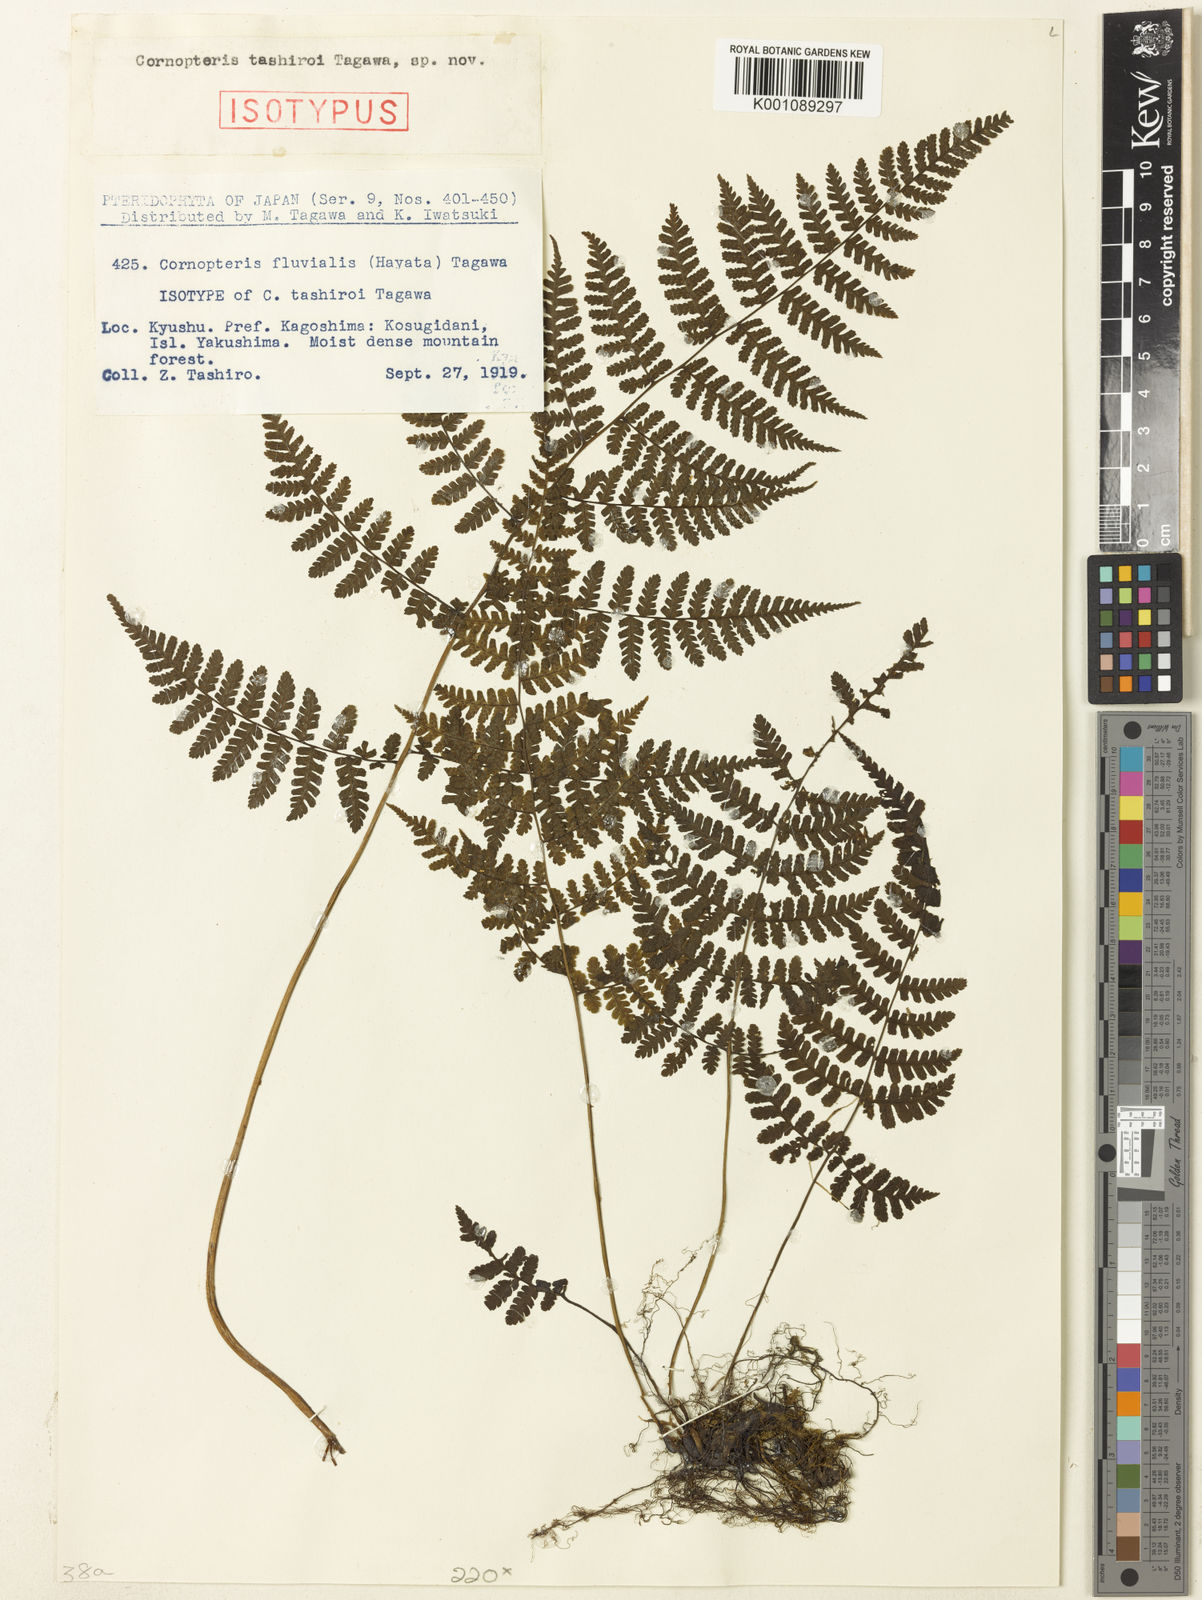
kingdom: Plantae
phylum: Tracheophyta
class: Polypodiopsida
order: Polypodiales
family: Athyriaceae
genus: Diplazium
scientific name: Diplazium
